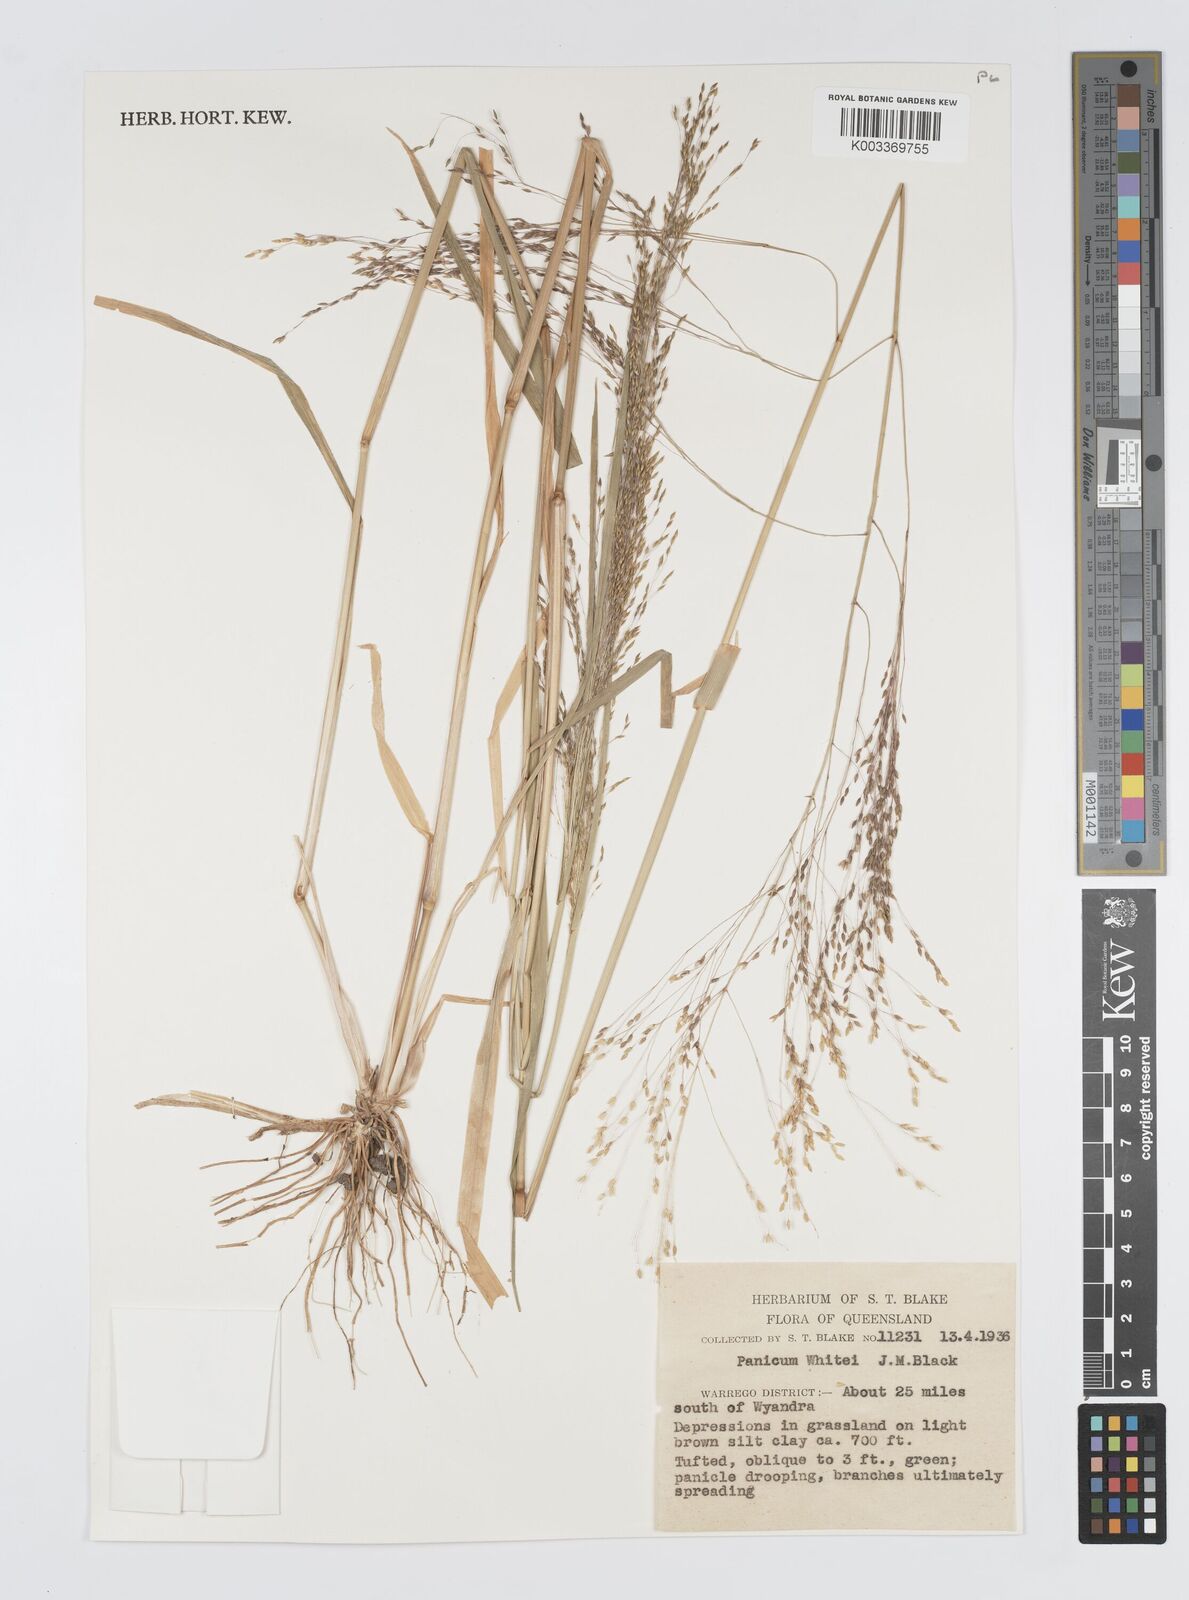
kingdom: Plantae
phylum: Tracheophyta
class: Liliopsida
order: Poales
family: Poaceae
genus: Panicum
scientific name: Panicum laevinode
